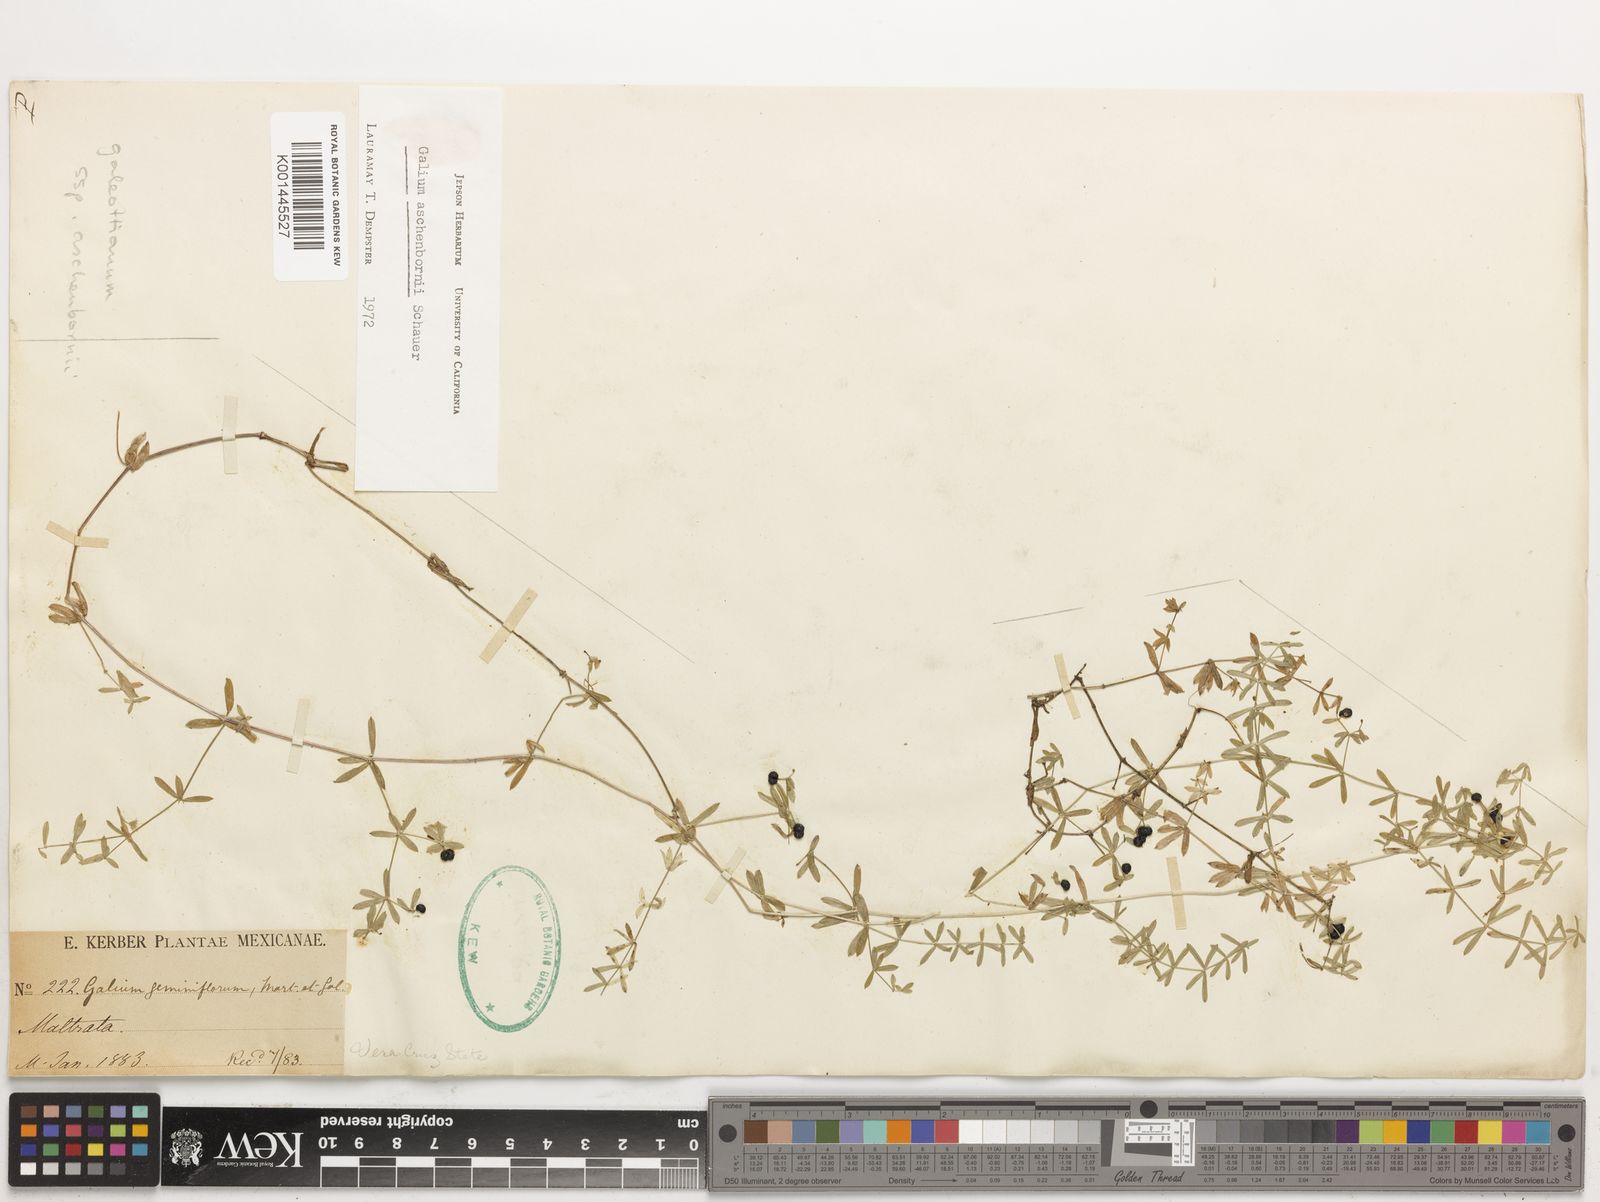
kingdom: Plantae
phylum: Tracheophyta
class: Magnoliopsida
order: Gentianales
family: Rubiaceae
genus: Galium
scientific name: Galium aschenbornii
